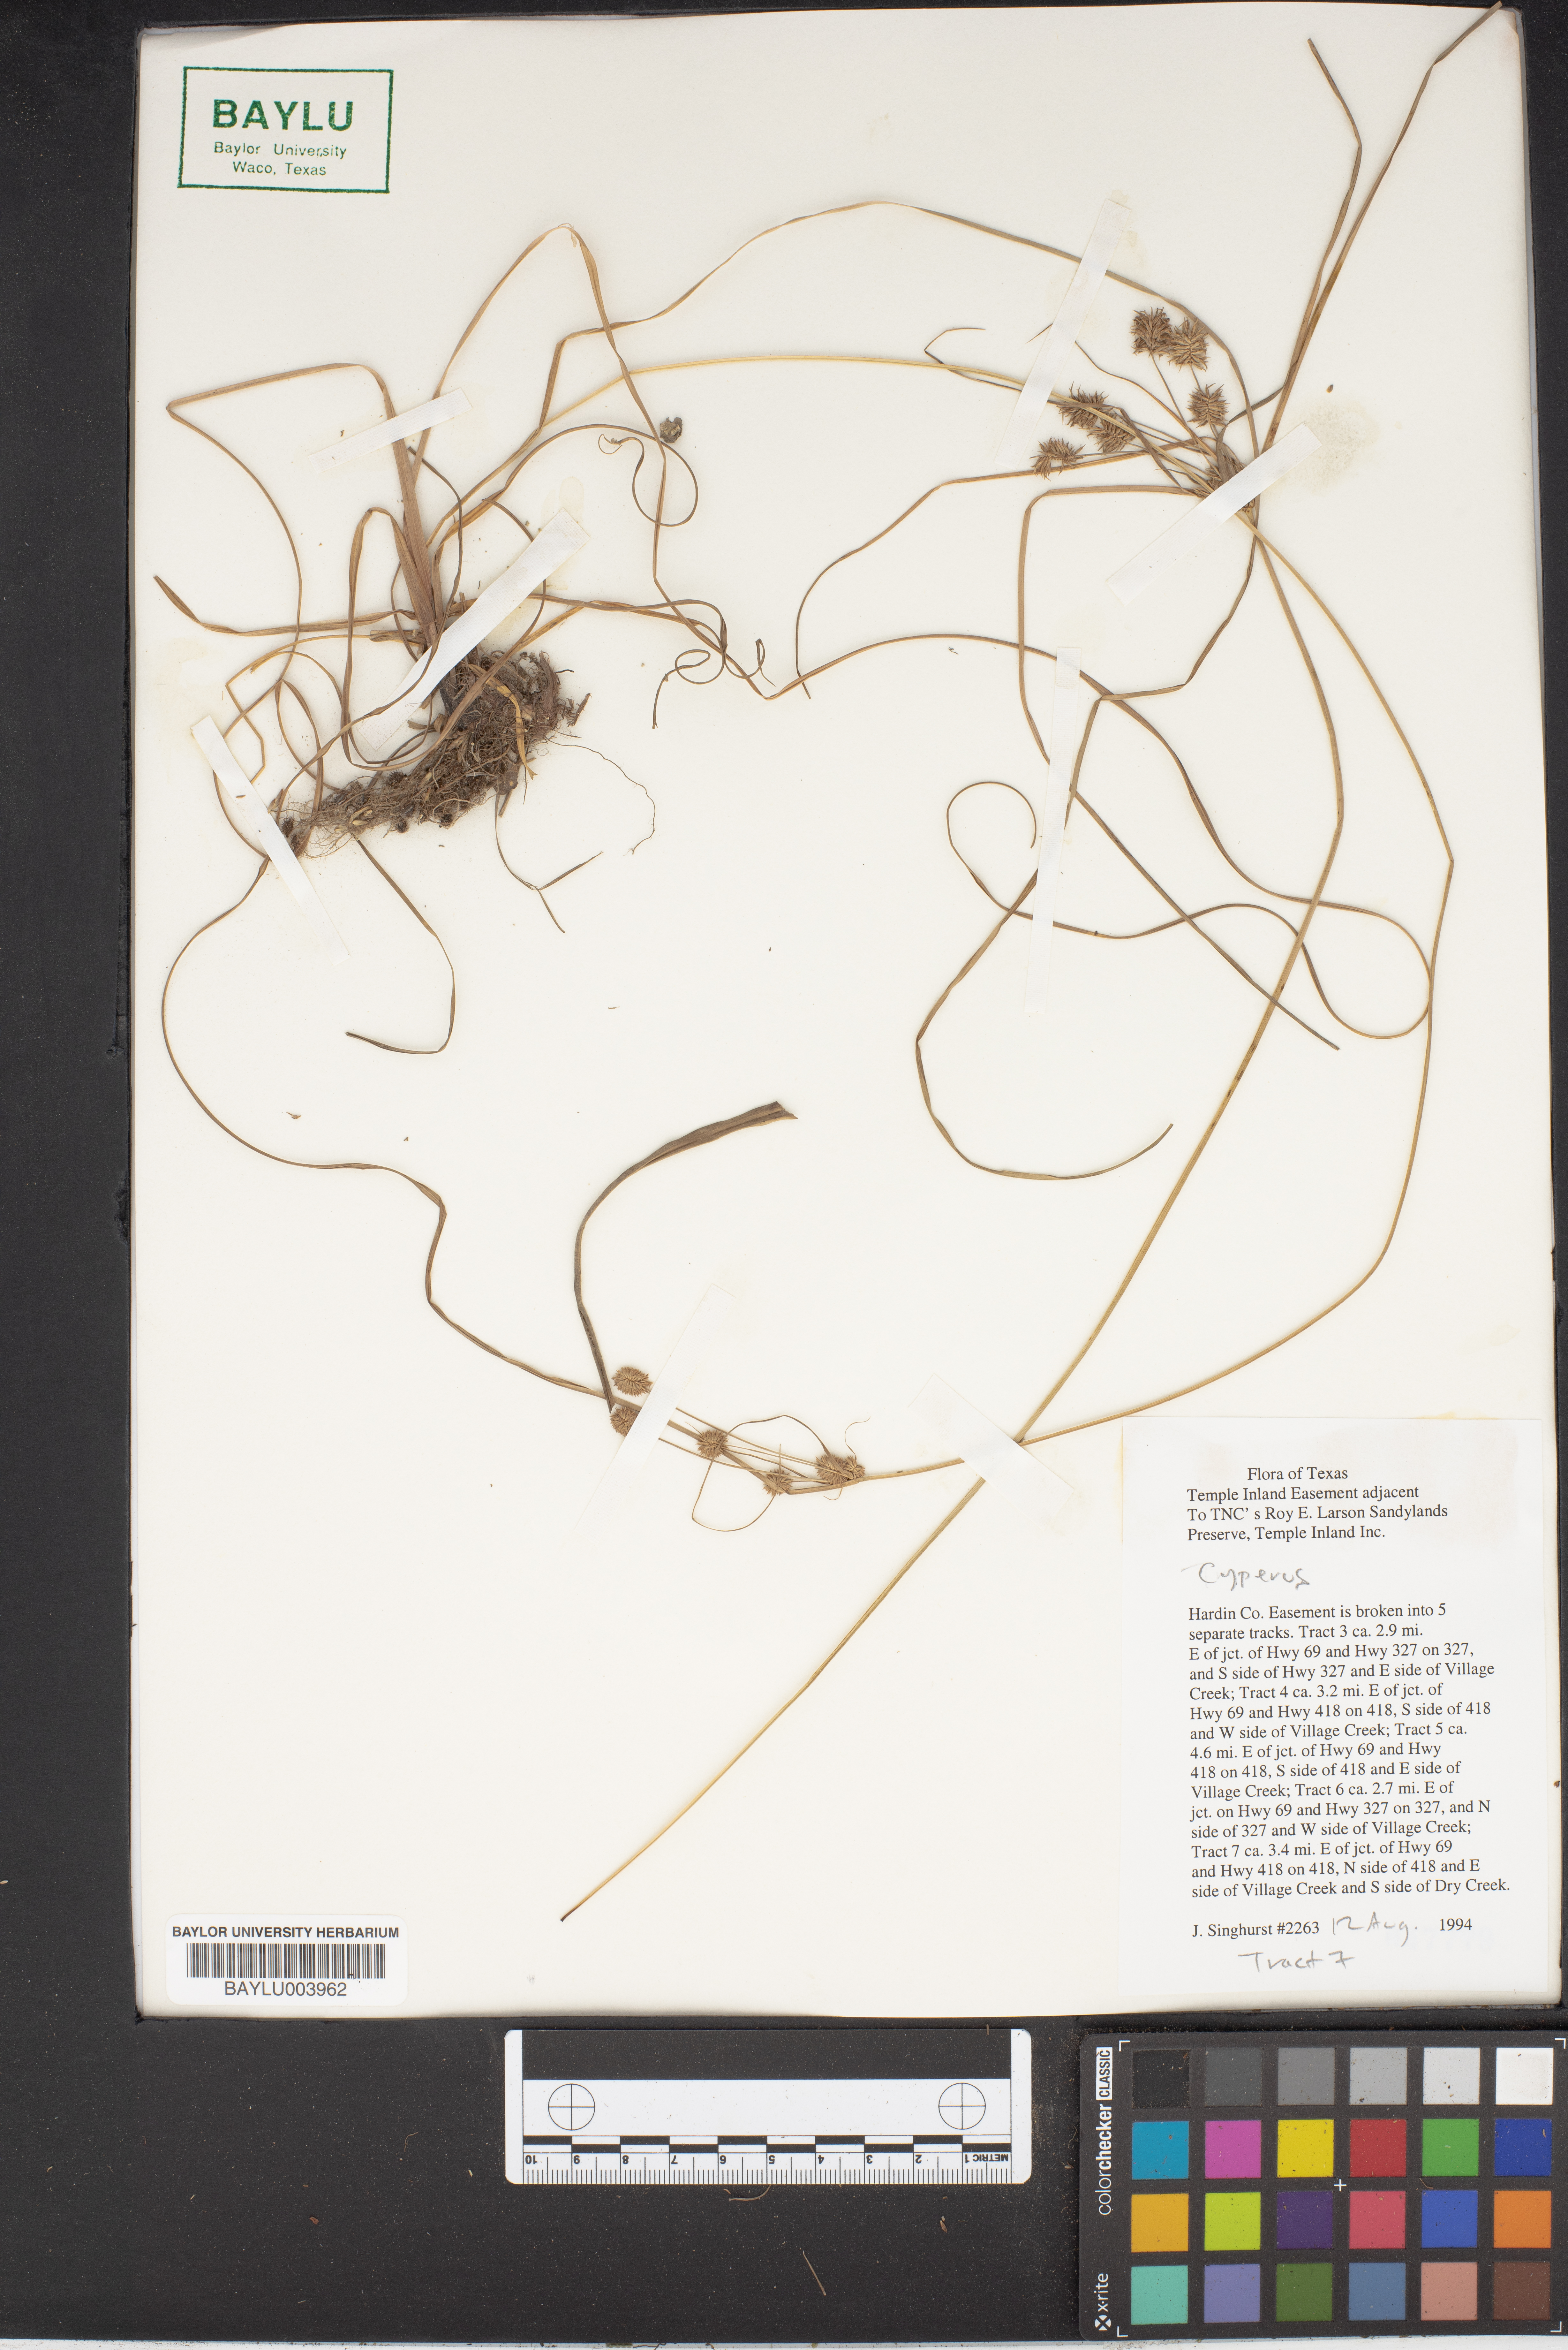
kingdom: Plantae
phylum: Tracheophyta
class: Liliopsida
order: Poales
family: Cyperaceae
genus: Cyperus
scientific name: Cyperus
